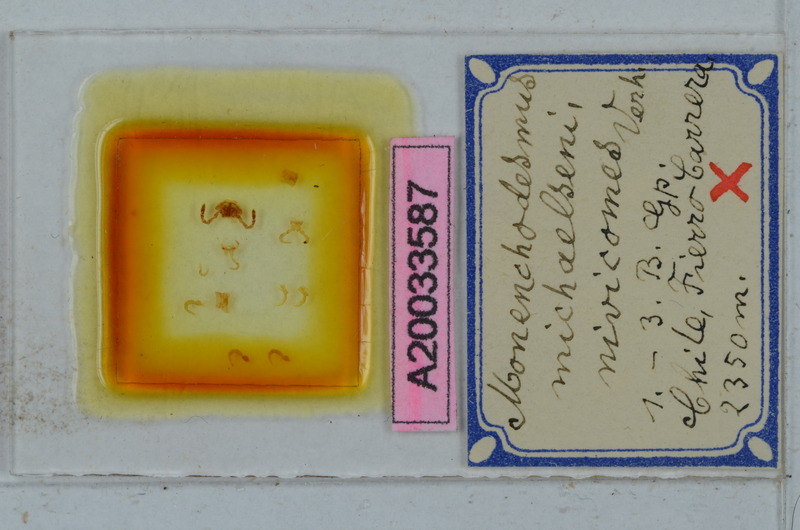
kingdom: Animalia
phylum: Arthropoda
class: Diplopoda
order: Polydesmida
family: Dalodesmidae
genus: Monenchodesmus
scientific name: Monenchodesmus michaelseni
